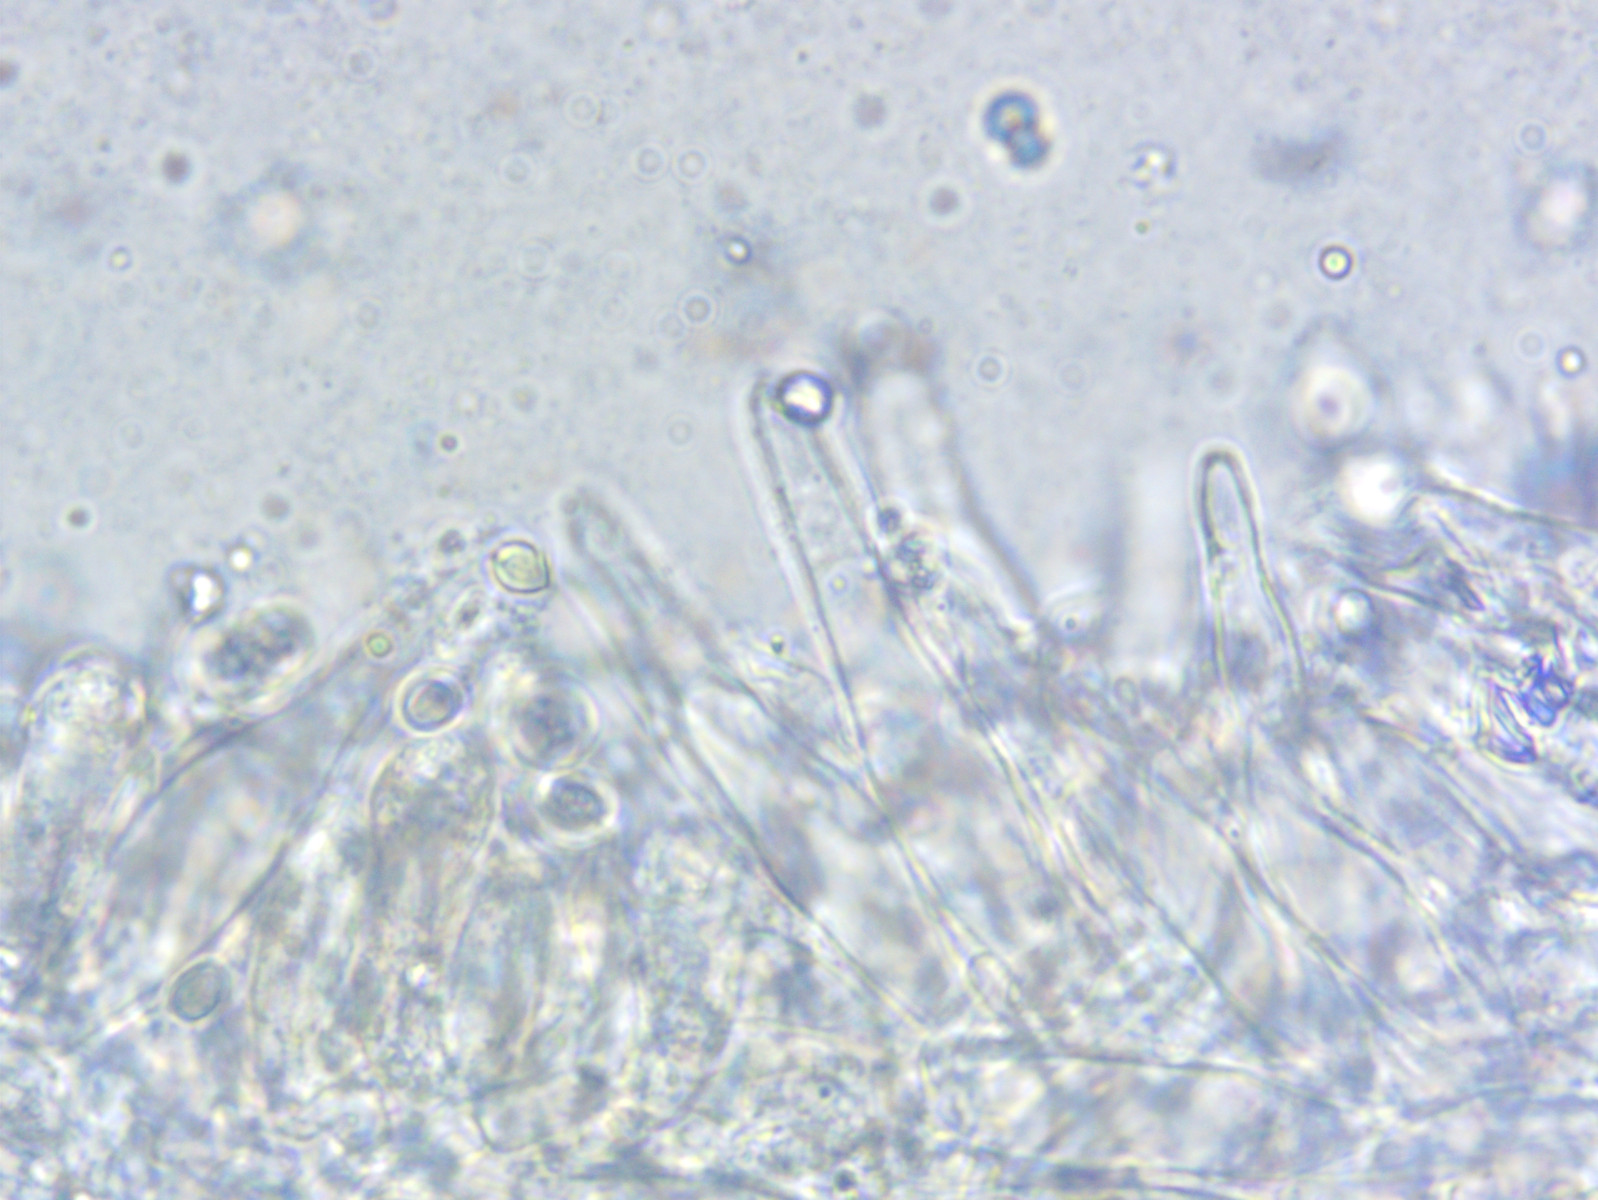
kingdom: Fungi
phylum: Basidiomycota
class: Agaricomycetes
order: Agaricales
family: Mycenaceae
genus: Mycena
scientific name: Mycena galopus
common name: hvidmælket huesvamp
